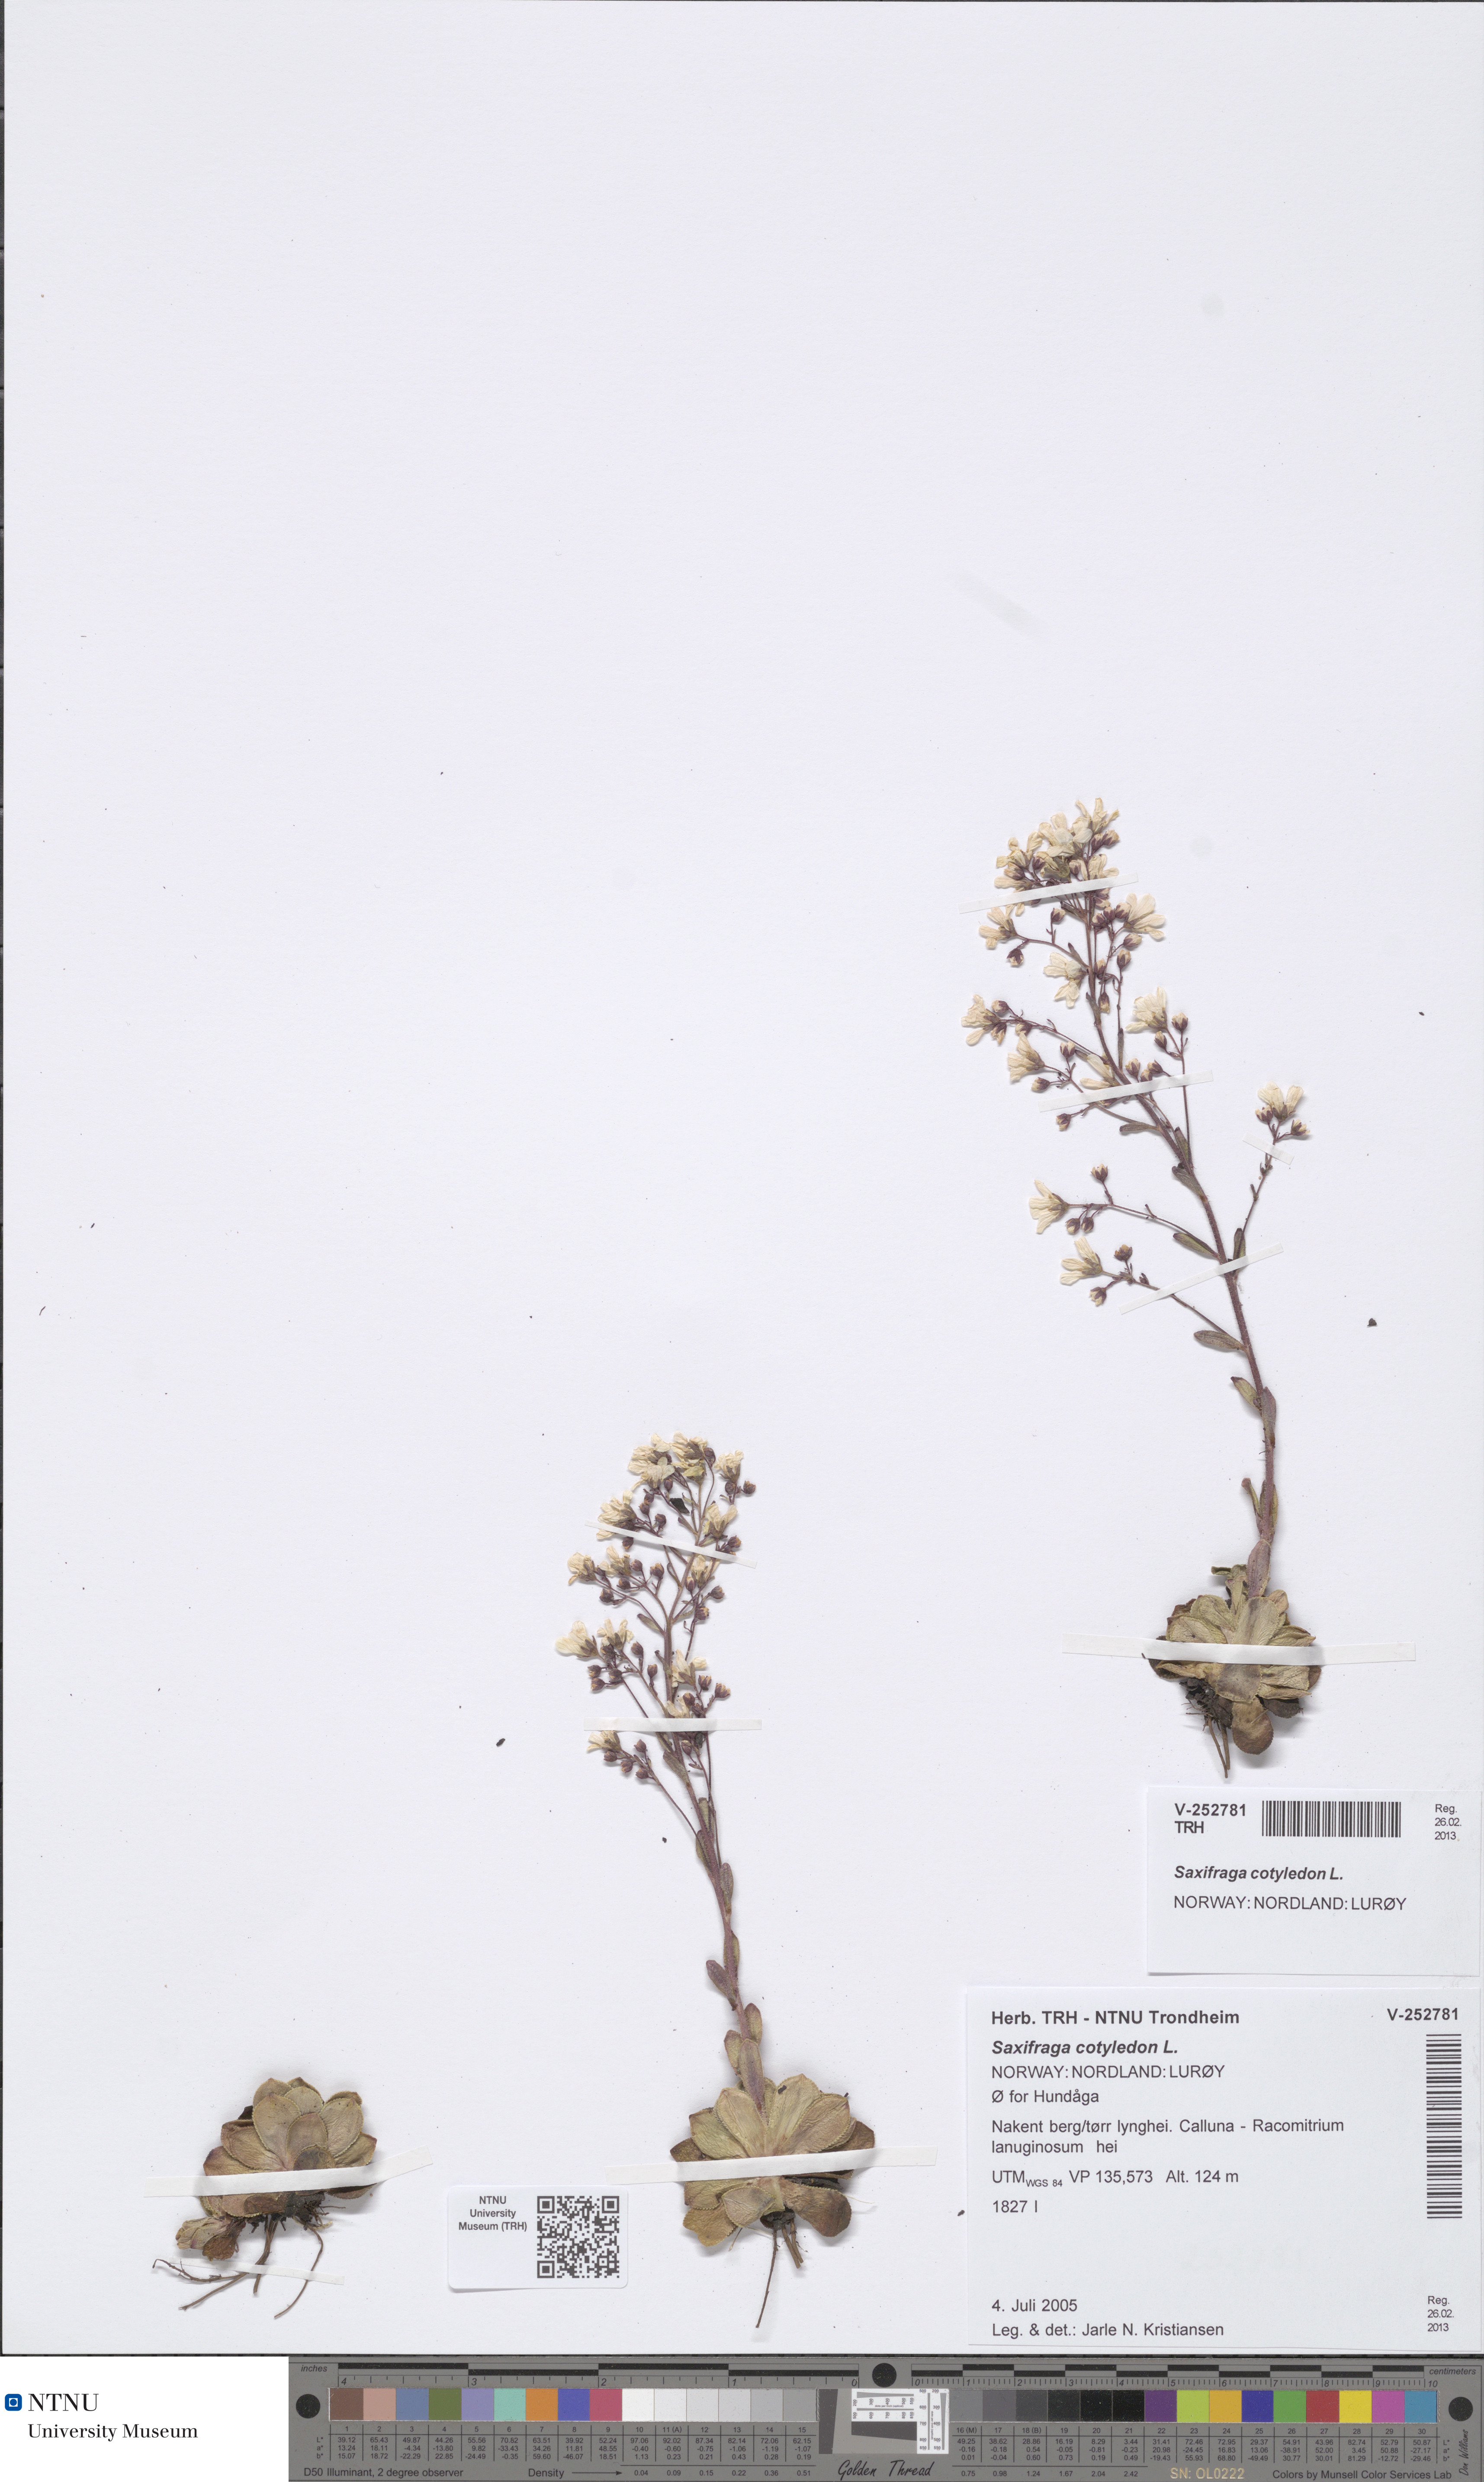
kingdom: Plantae
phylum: Tracheophyta
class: Magnoliopsida
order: Saxifragales
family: Saxifragaceae
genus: Saxifraga
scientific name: Saxifraga cotyledon
